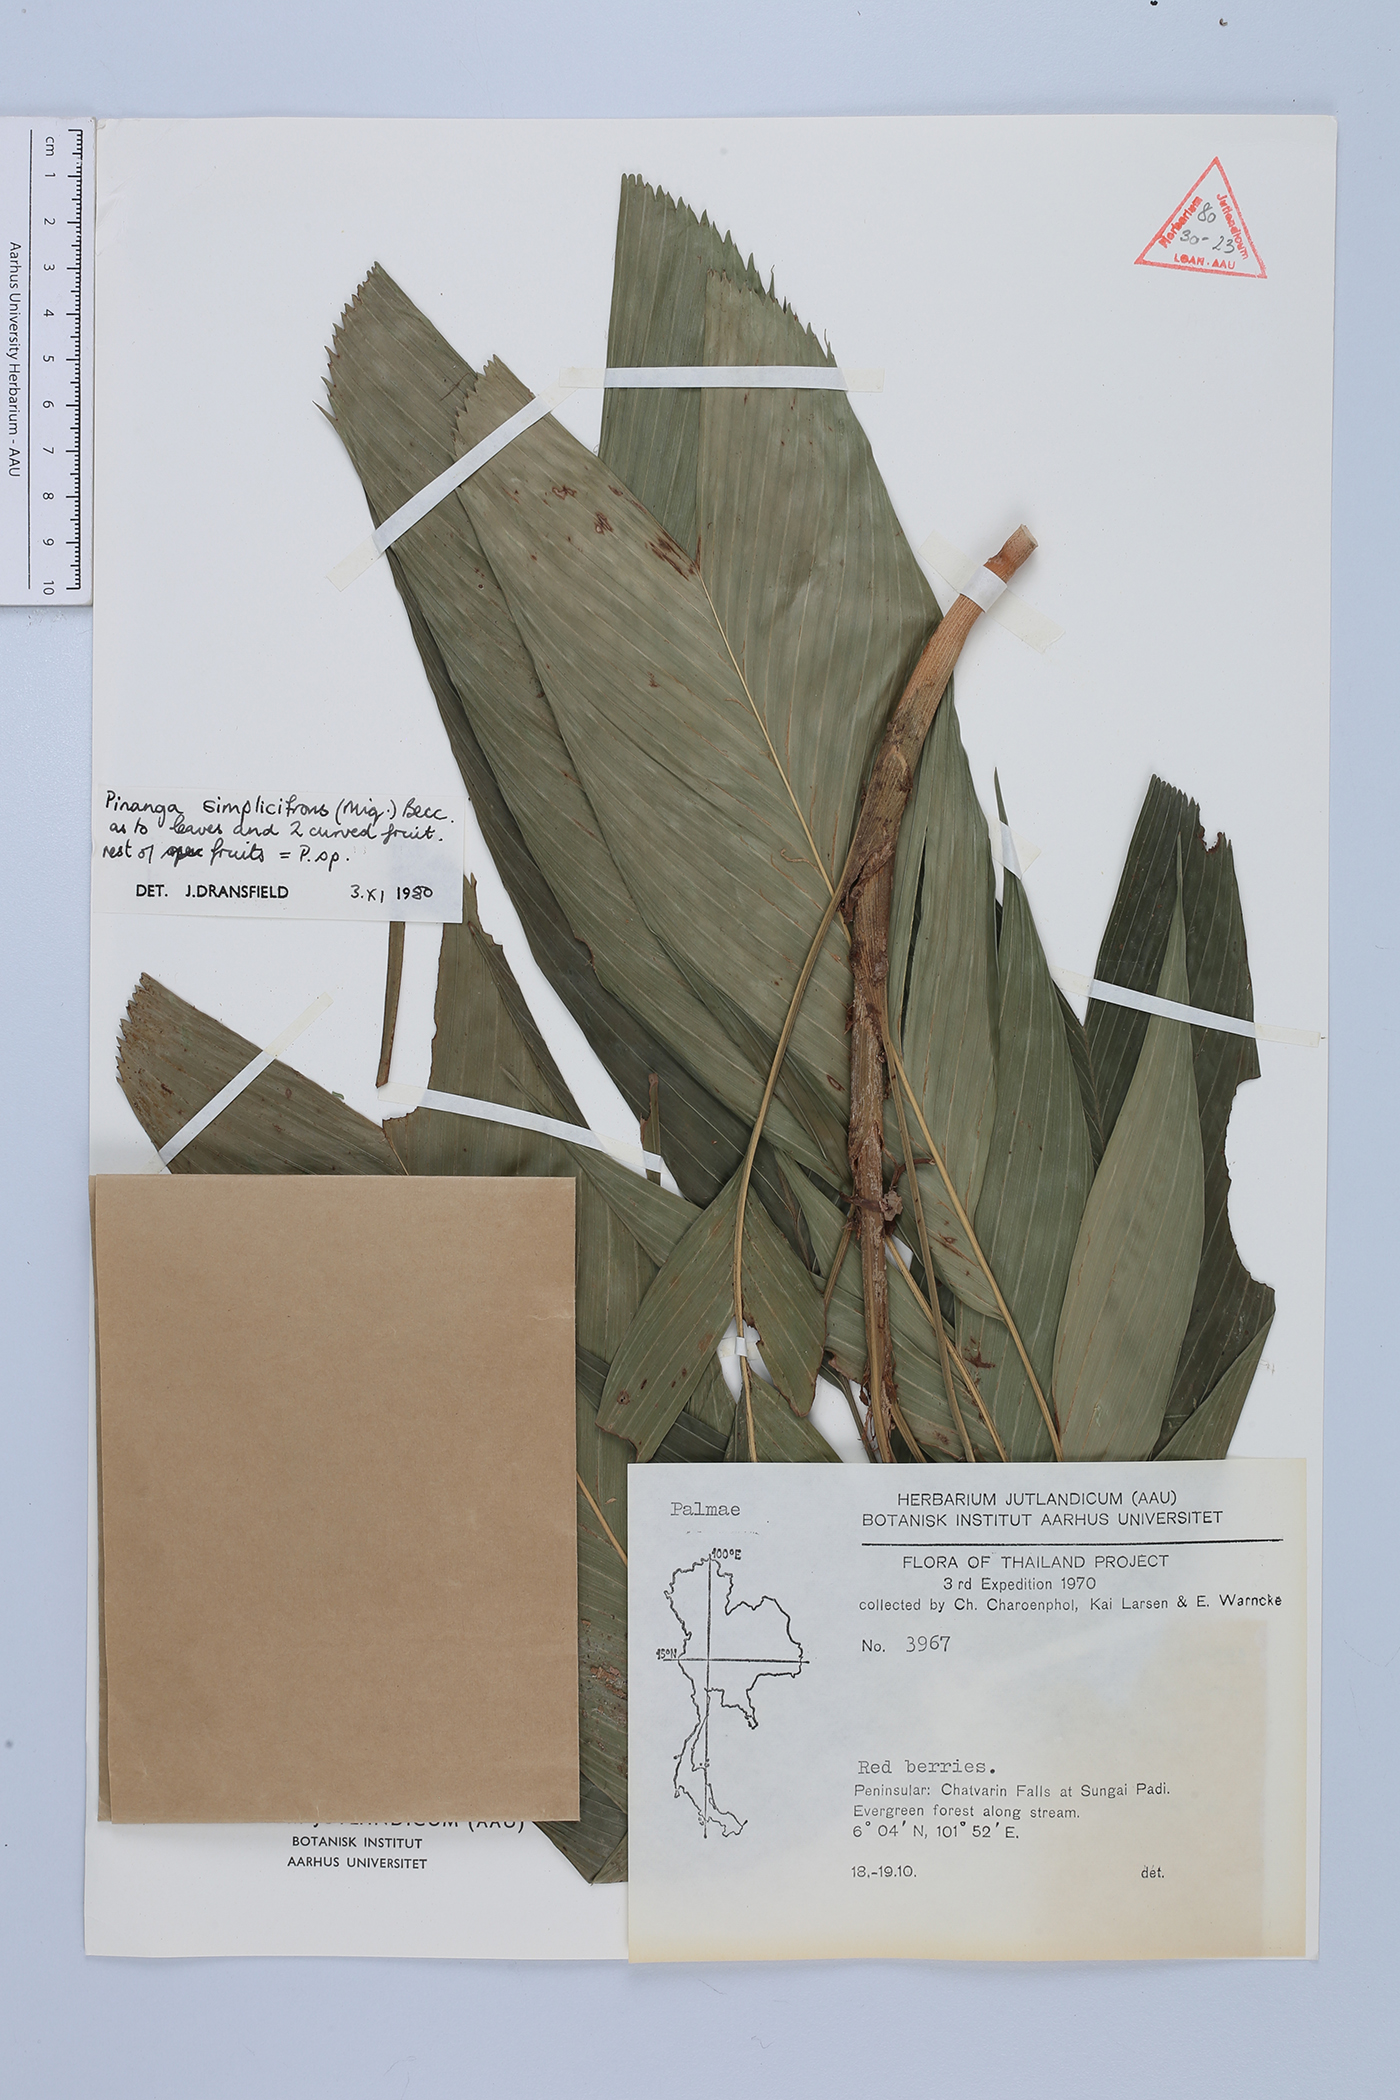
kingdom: Plantae
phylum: Tracheophyta
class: Liliopsida
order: Arecales
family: Arecaceae
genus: Pinanga
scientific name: Pinanga simplicifrons
